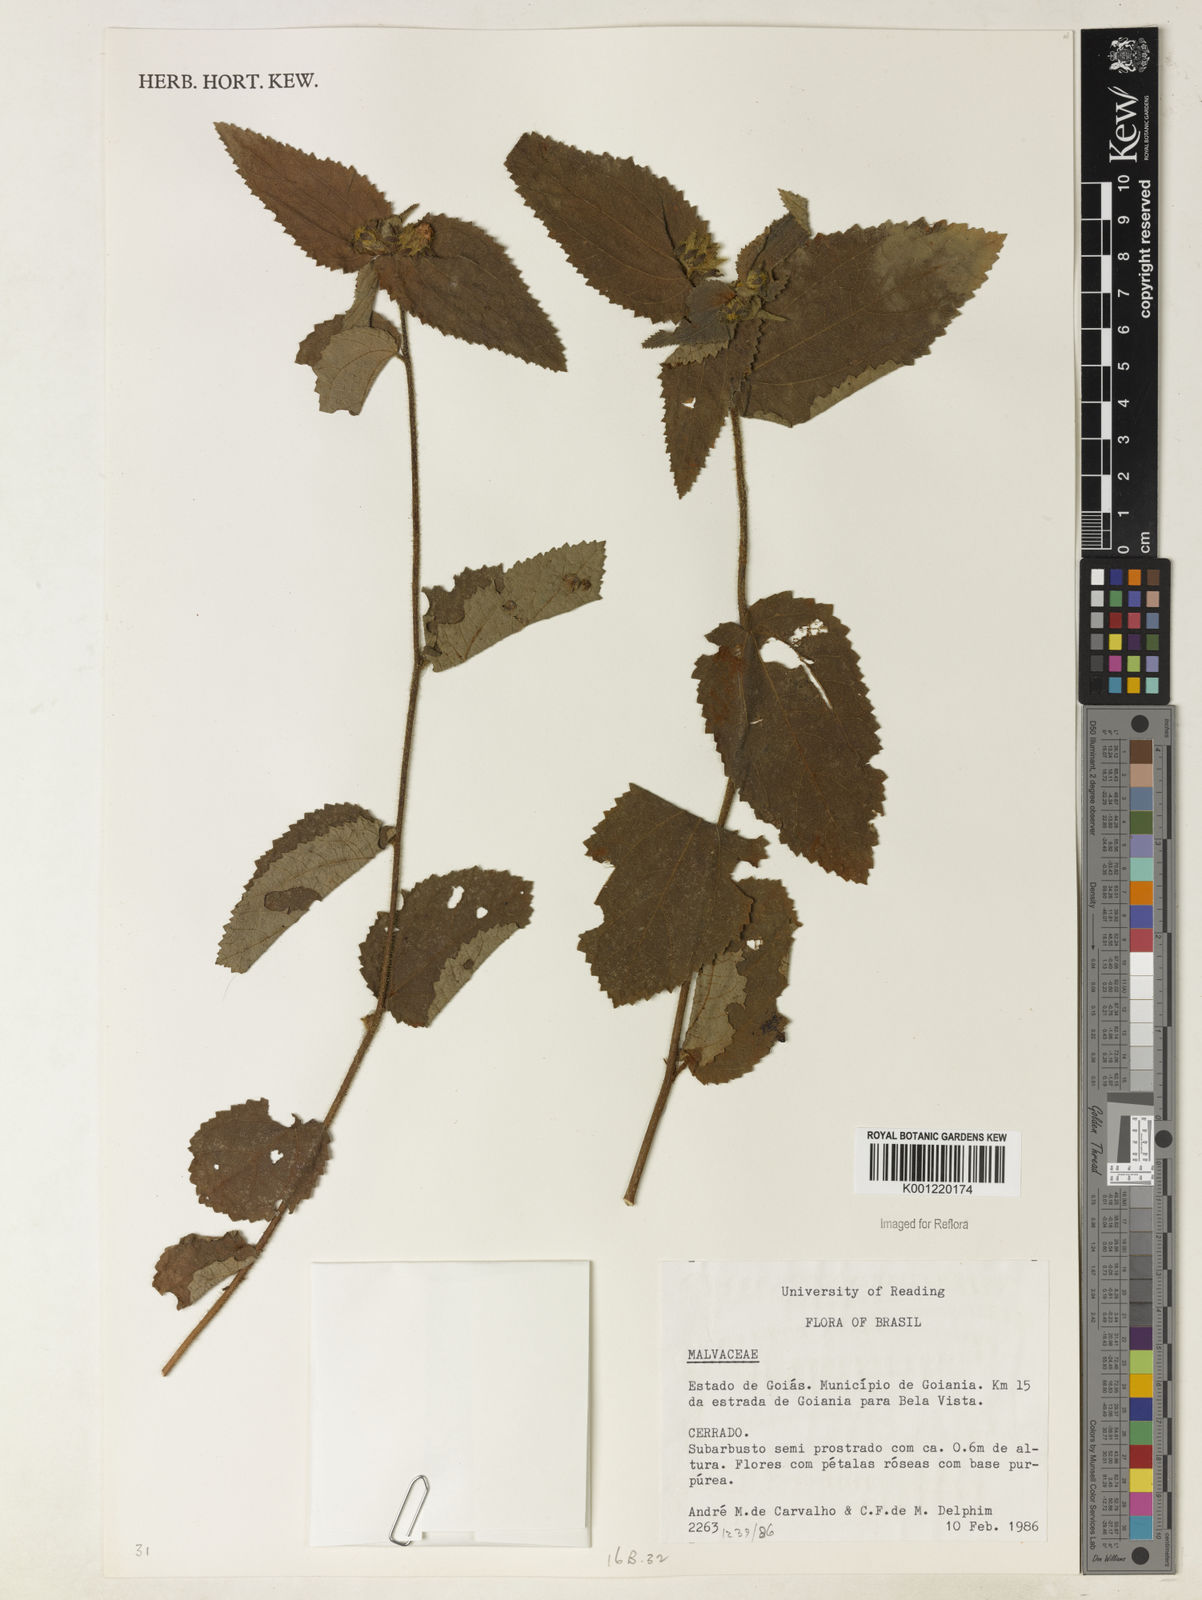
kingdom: Plantae
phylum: Tracheophyta
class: Magnoliopsida
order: Malvales
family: Malvaceae
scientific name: Malvaceae
